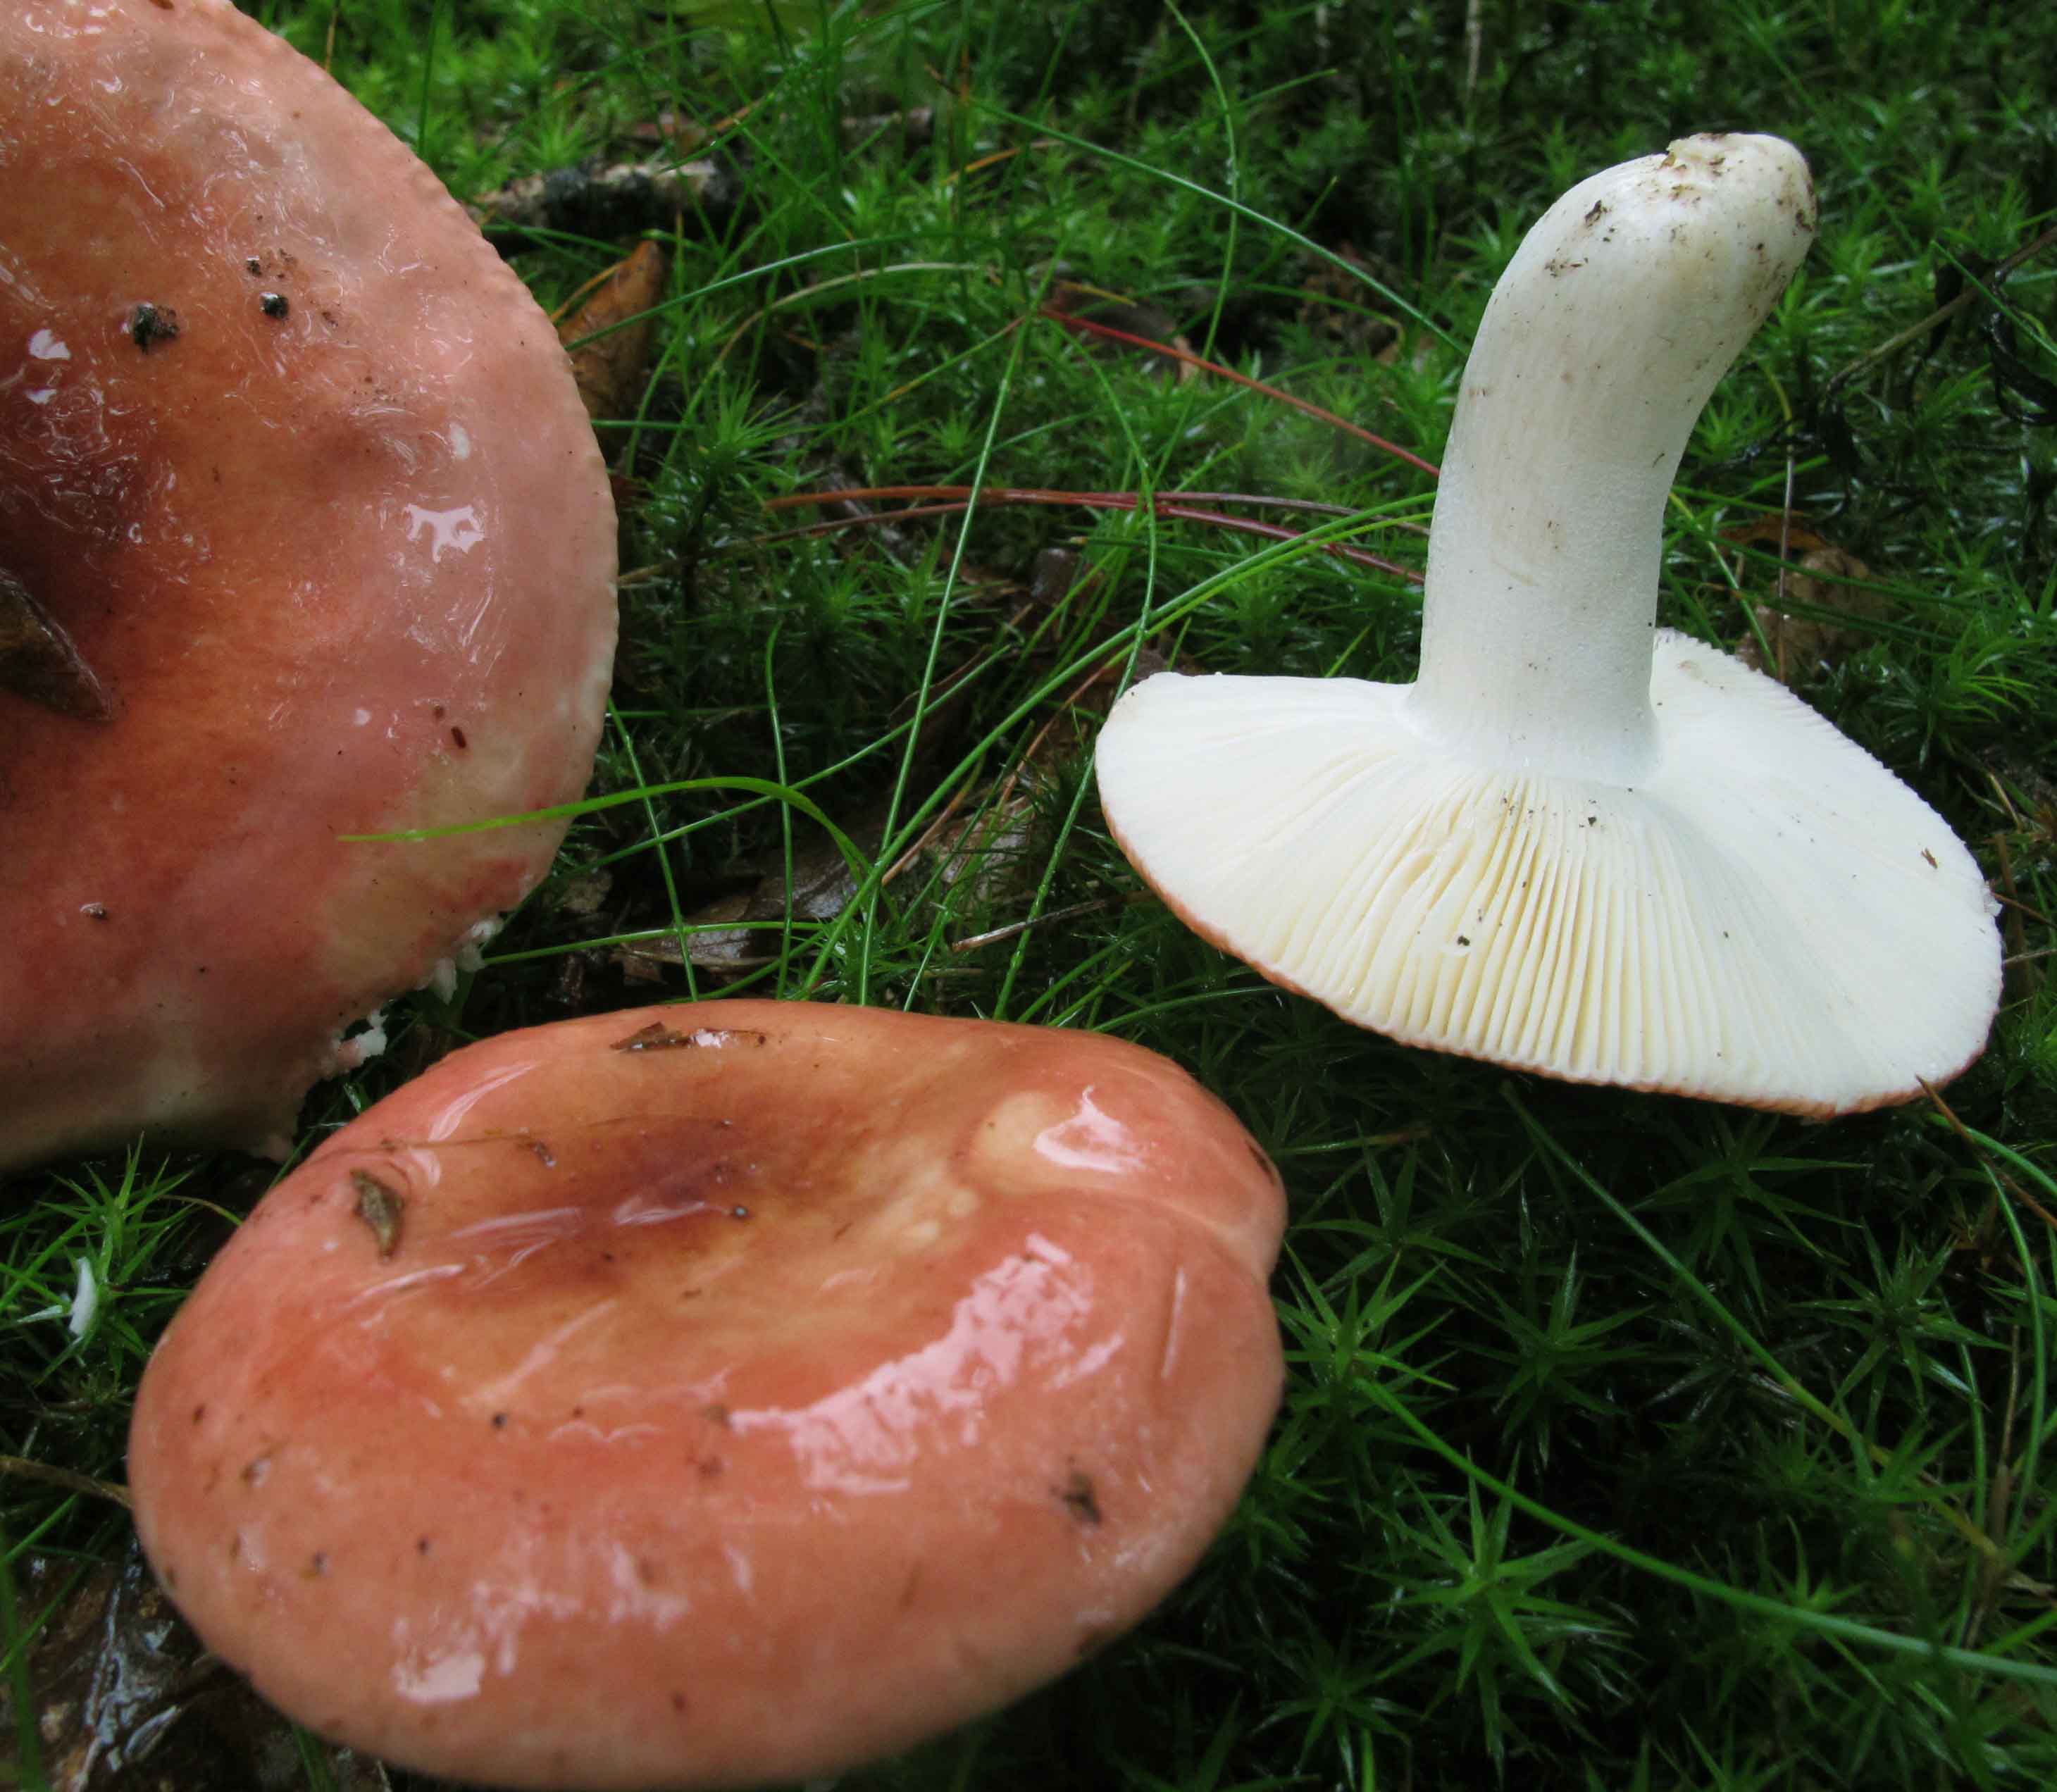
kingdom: Fungi
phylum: Basidiomycota
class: Agaricomycetes
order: Russulales
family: Russulaceae
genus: Russula
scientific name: Russula rosea
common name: fastkødet skørhat
